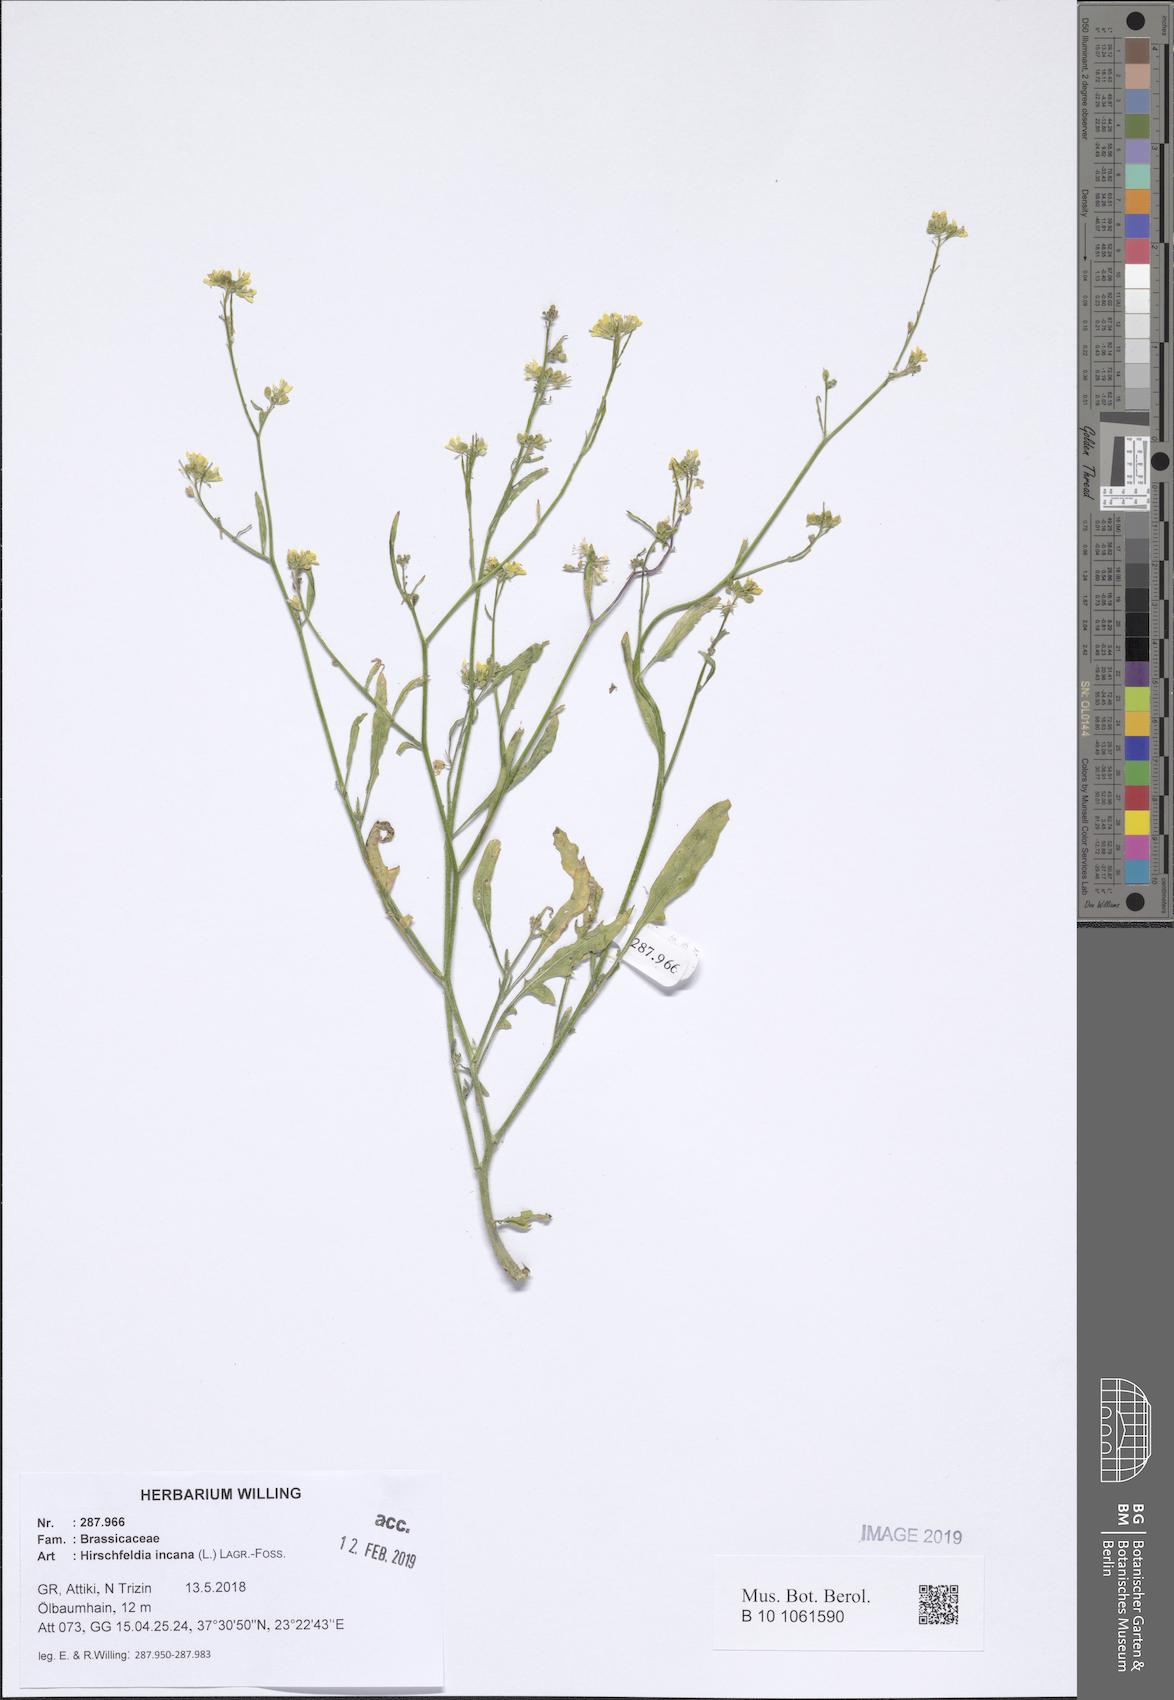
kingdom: Plantae
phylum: Tracheophyta
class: Magnoliopsida
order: Brassicales
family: Brassicaceae
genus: Hirschfeldia
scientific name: Hirschfeldia incana
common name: Hoary mustard
